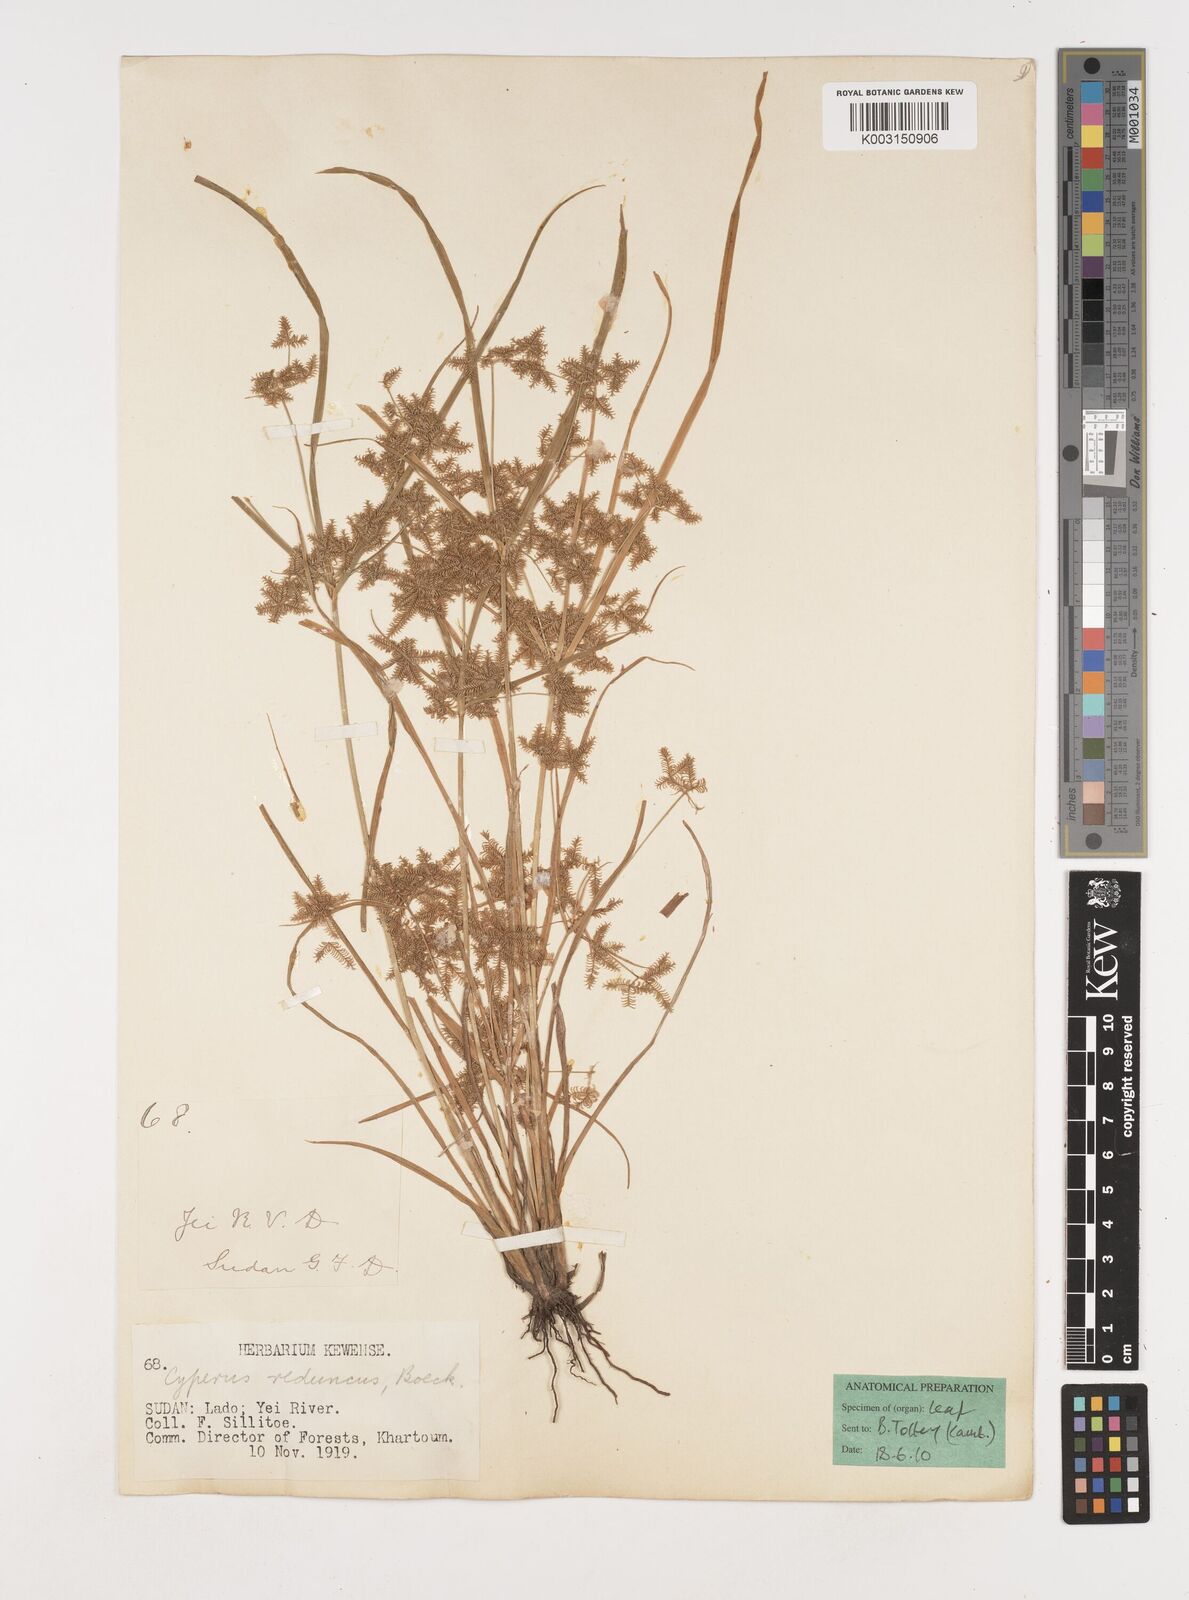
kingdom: Plantae
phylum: Tracheophyta
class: Liliopsida
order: Poales
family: Cyperaceae
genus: Cyperus
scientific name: Cyperus reduncus
